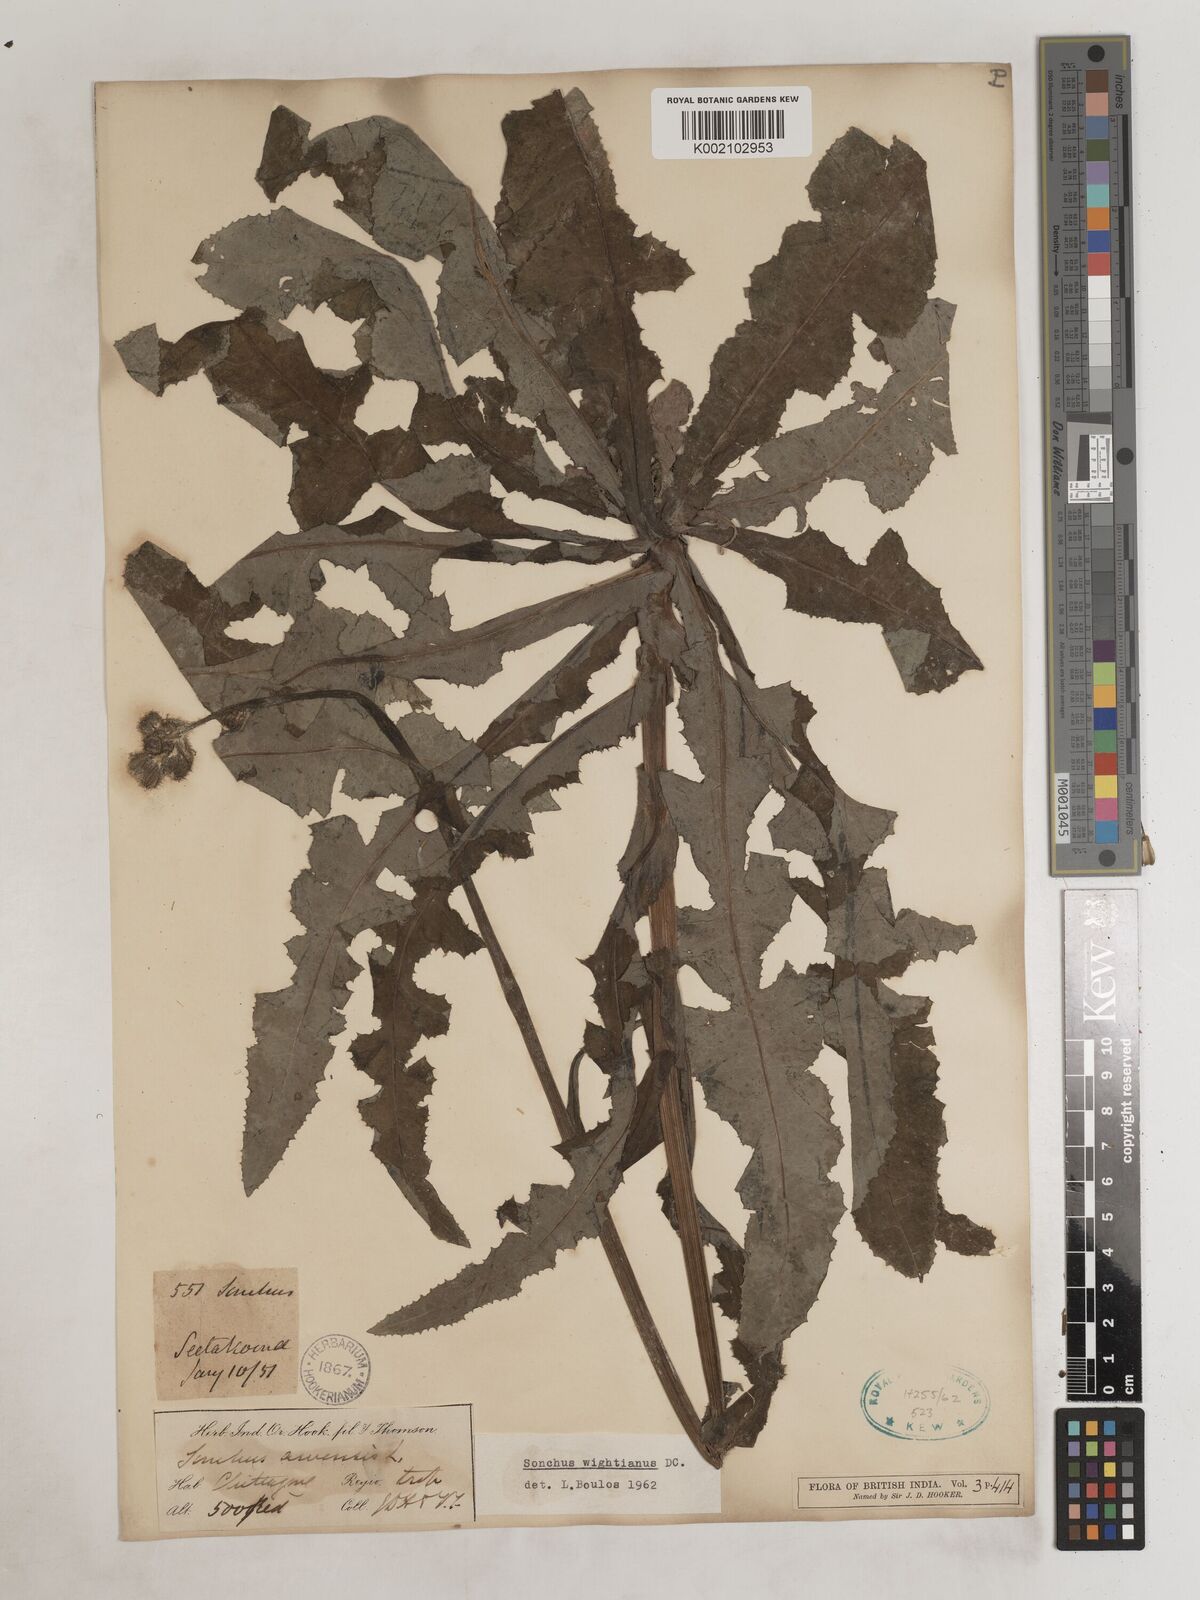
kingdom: Plantae
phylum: Tracheophyta
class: Magnoliopsida
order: Asterales
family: Asteraceae
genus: Sonchus
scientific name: Sonchus arvensis
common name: Perennial sow-thistle
